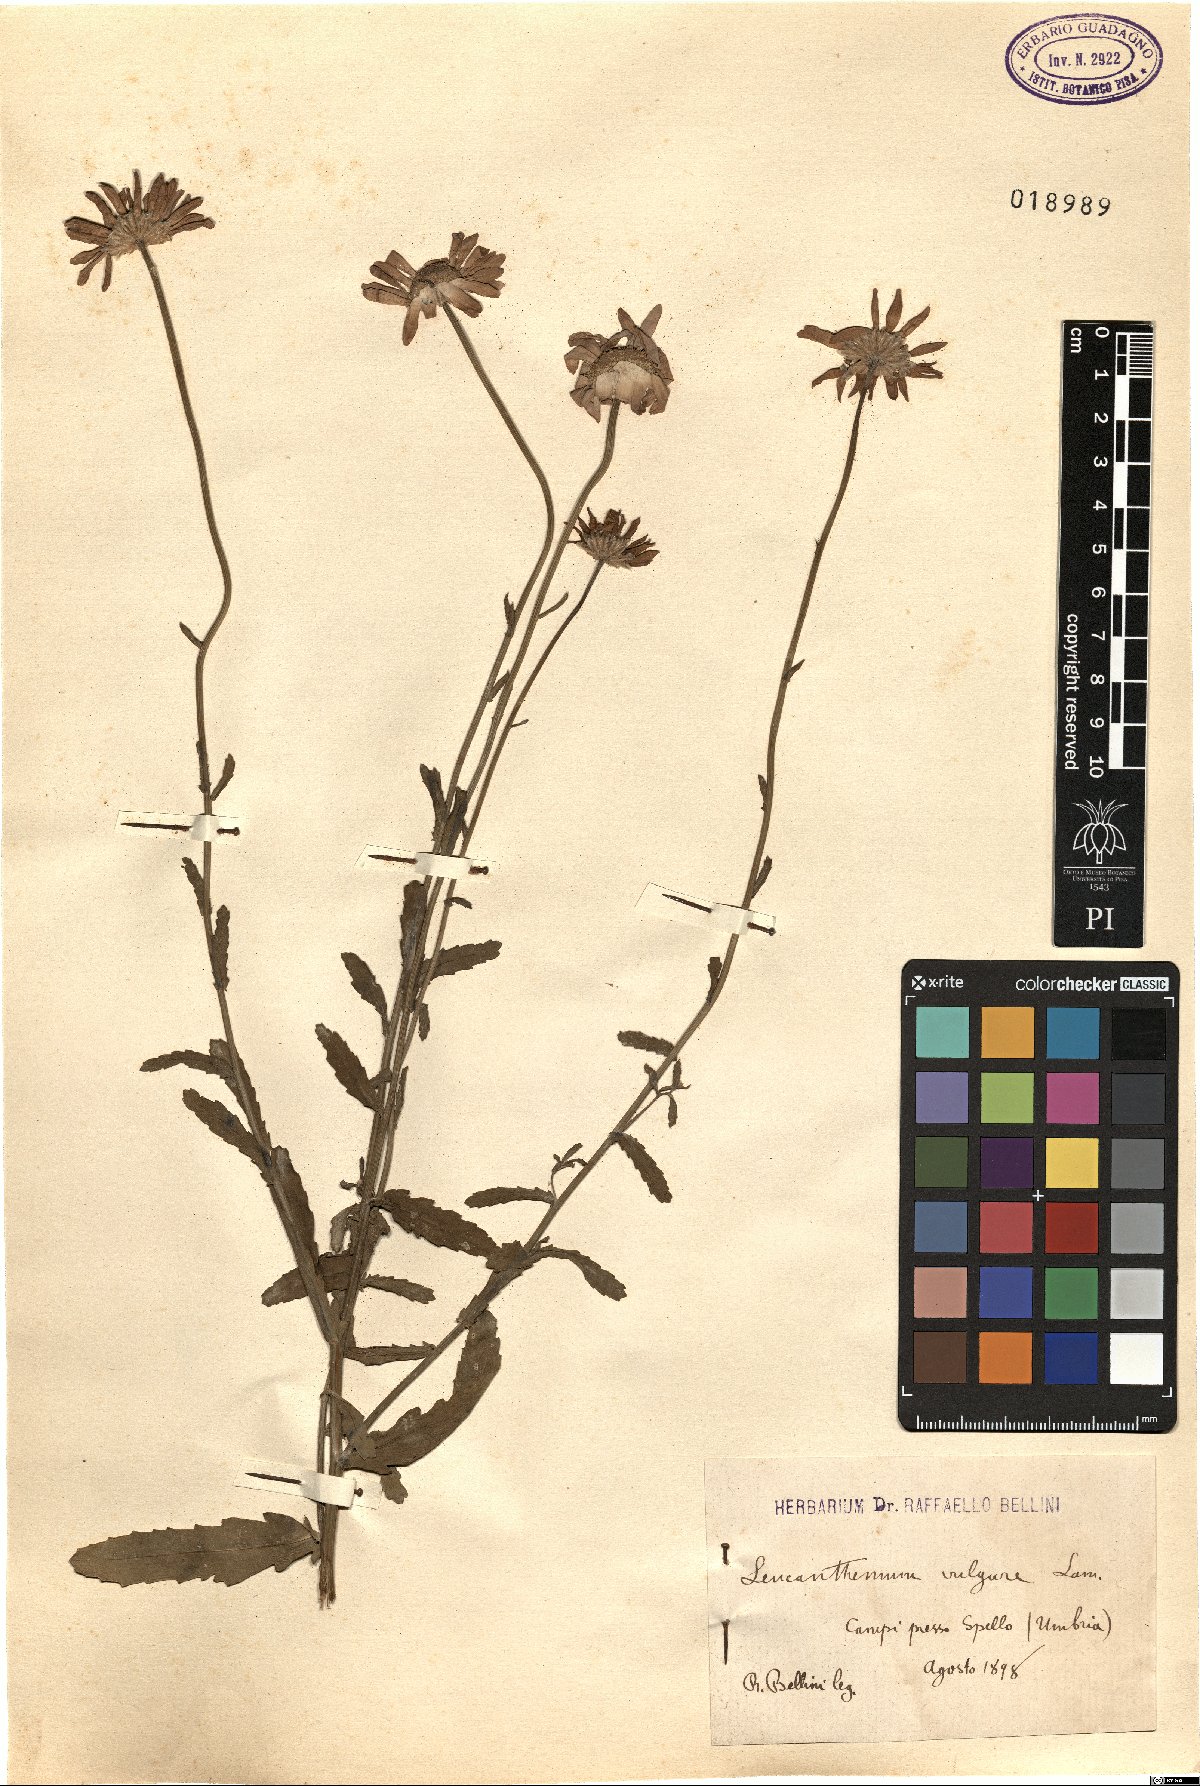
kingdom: Plantae
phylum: Tracheophyta
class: Magnoliopsida
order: Asterales
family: Asteraceae
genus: Leucanthemum
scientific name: Leucanthemum vulgare
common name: Oxeye daisy
